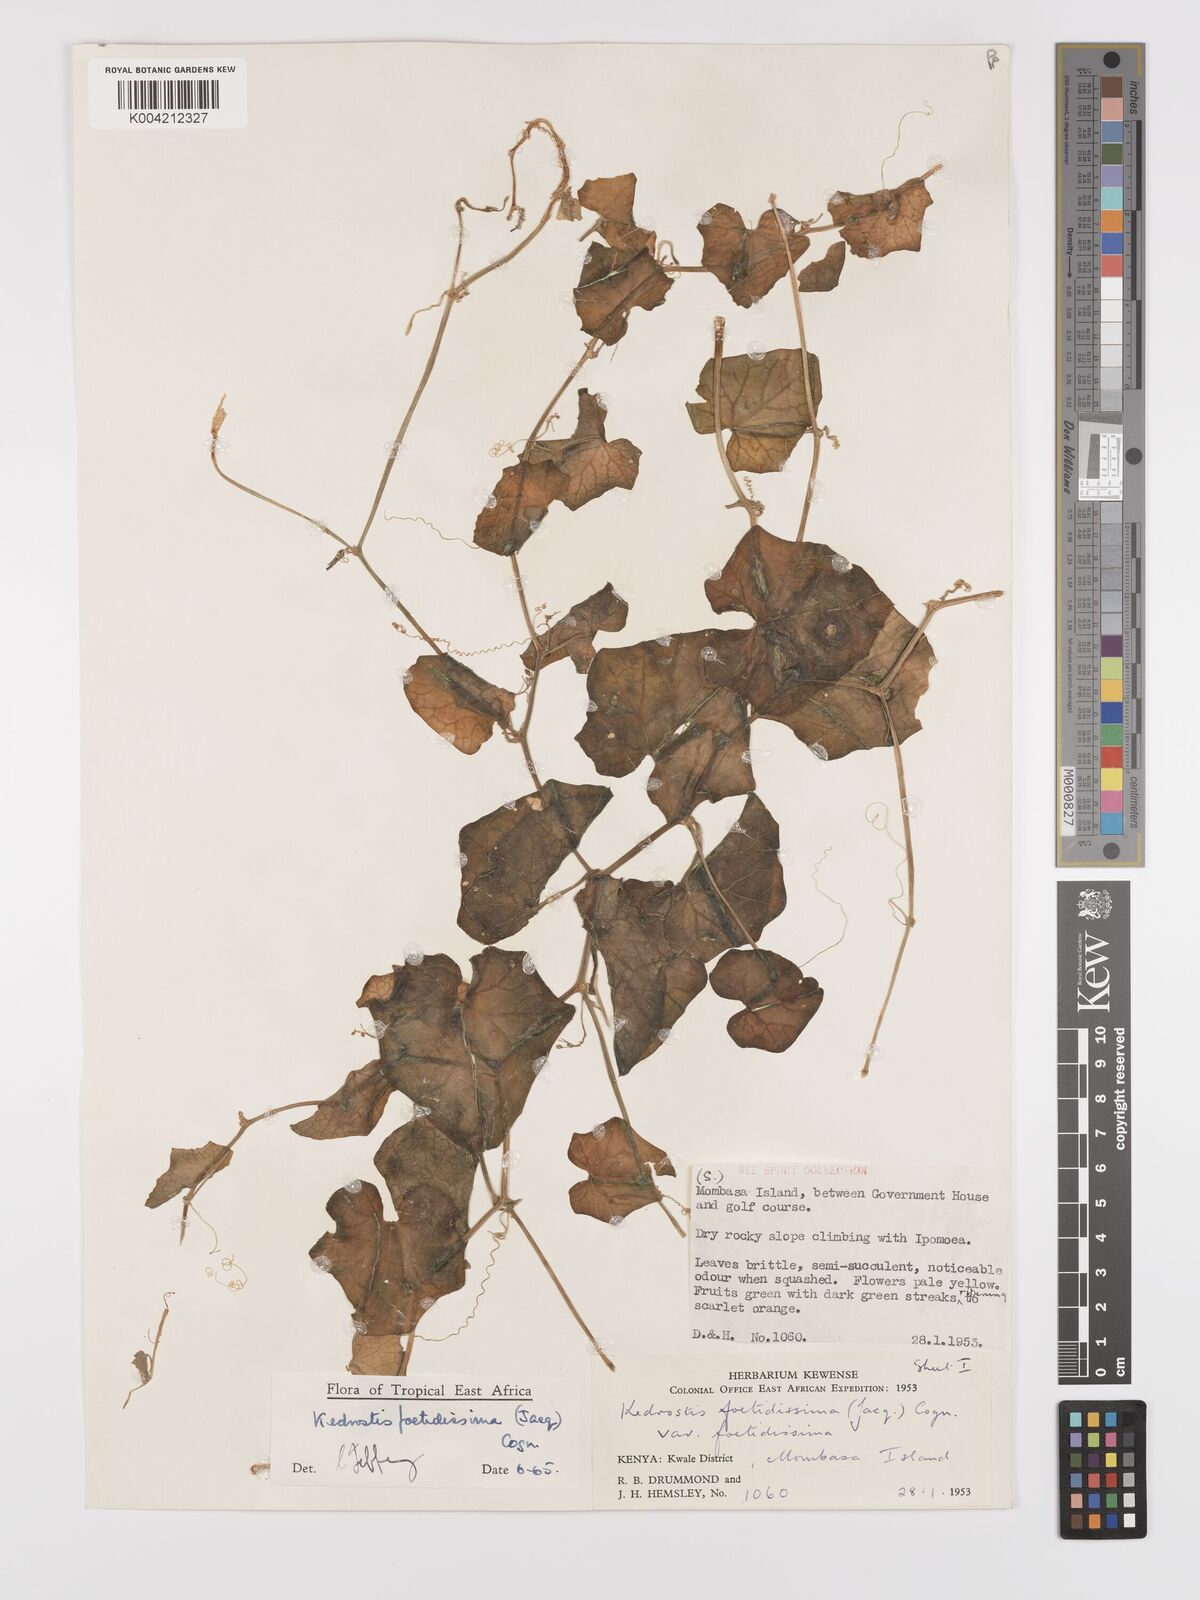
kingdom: Plantae
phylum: Tracheophyta
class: Magnoliopsida
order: Cucurbitales
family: Cucurbitaceae
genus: Kedrostis
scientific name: Kedrostis foetidissima
